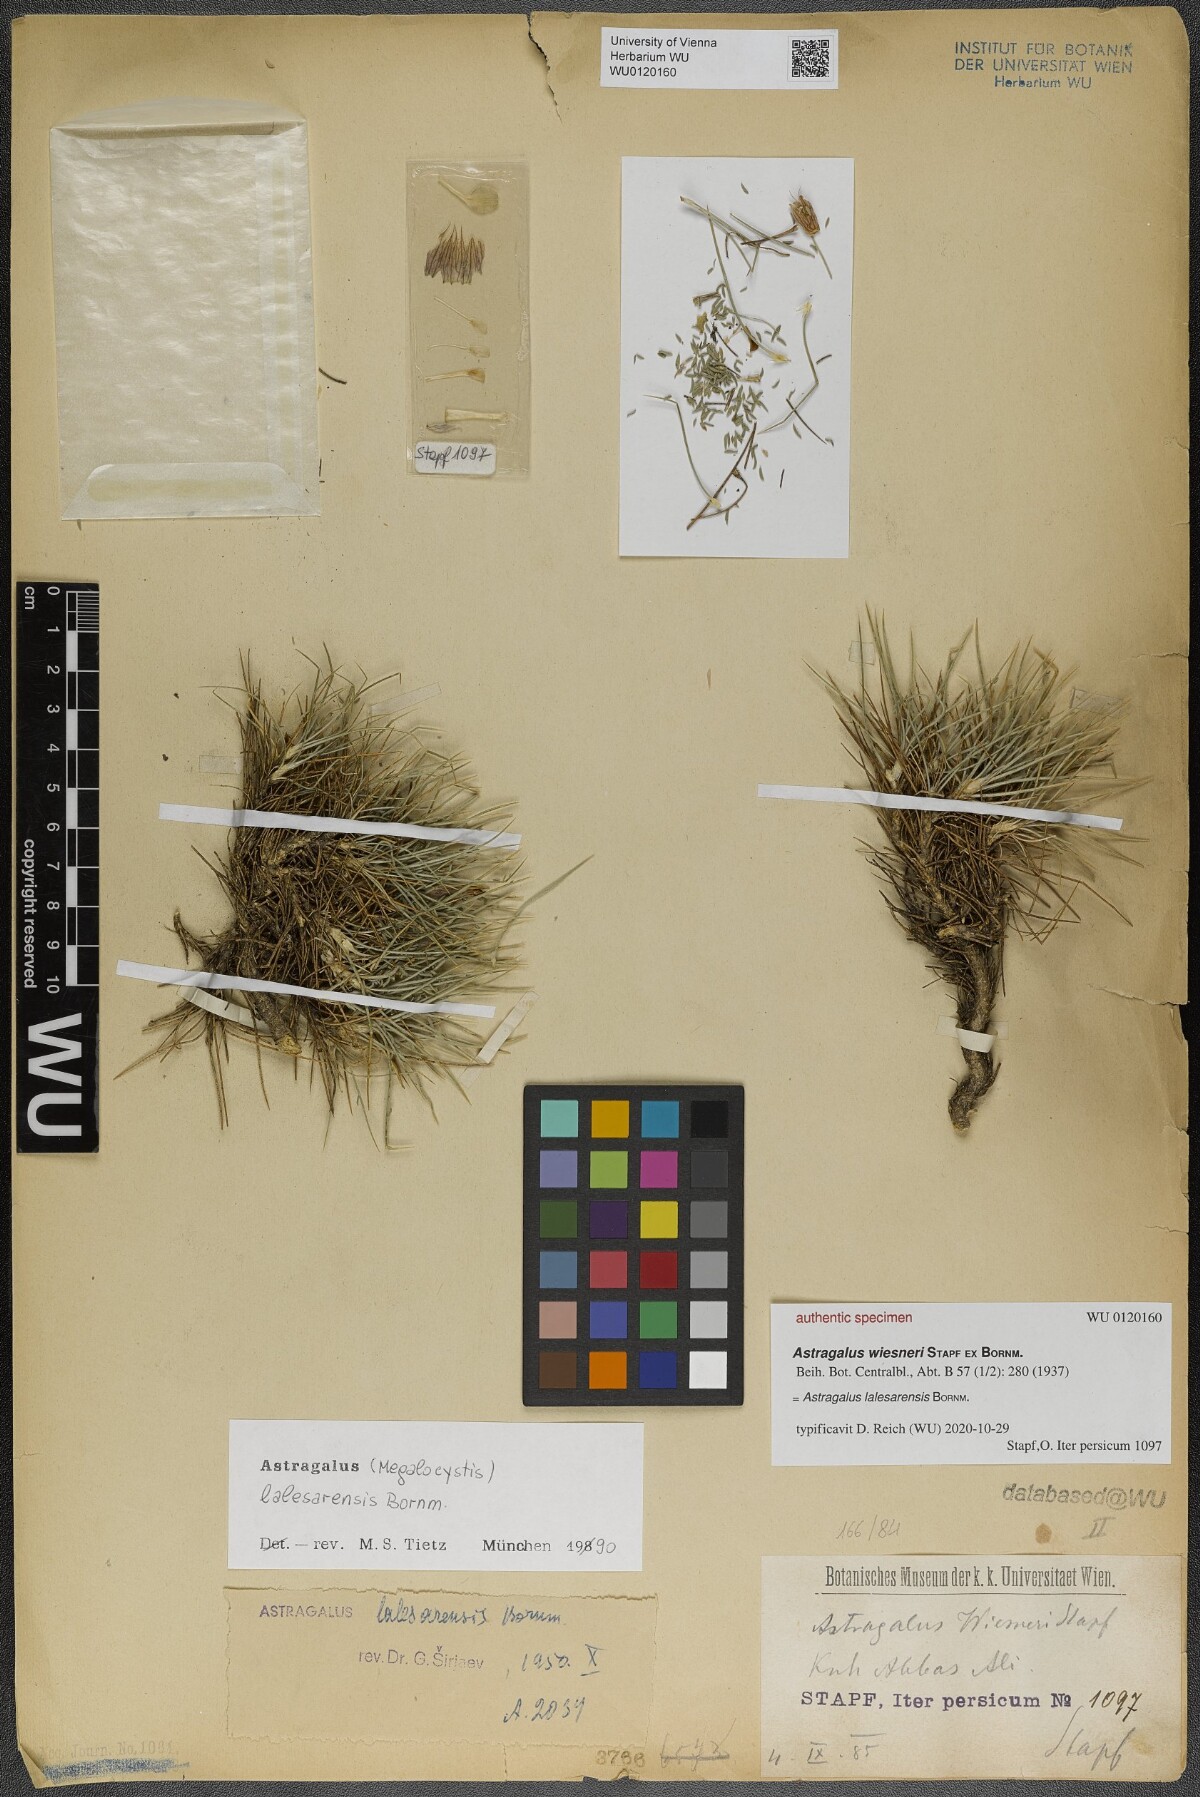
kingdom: Plantae
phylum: Tracheophyta
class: Magnoliopsida
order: Fabales
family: Fabaceae
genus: Astragalus
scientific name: Astragalus lalesarensis
